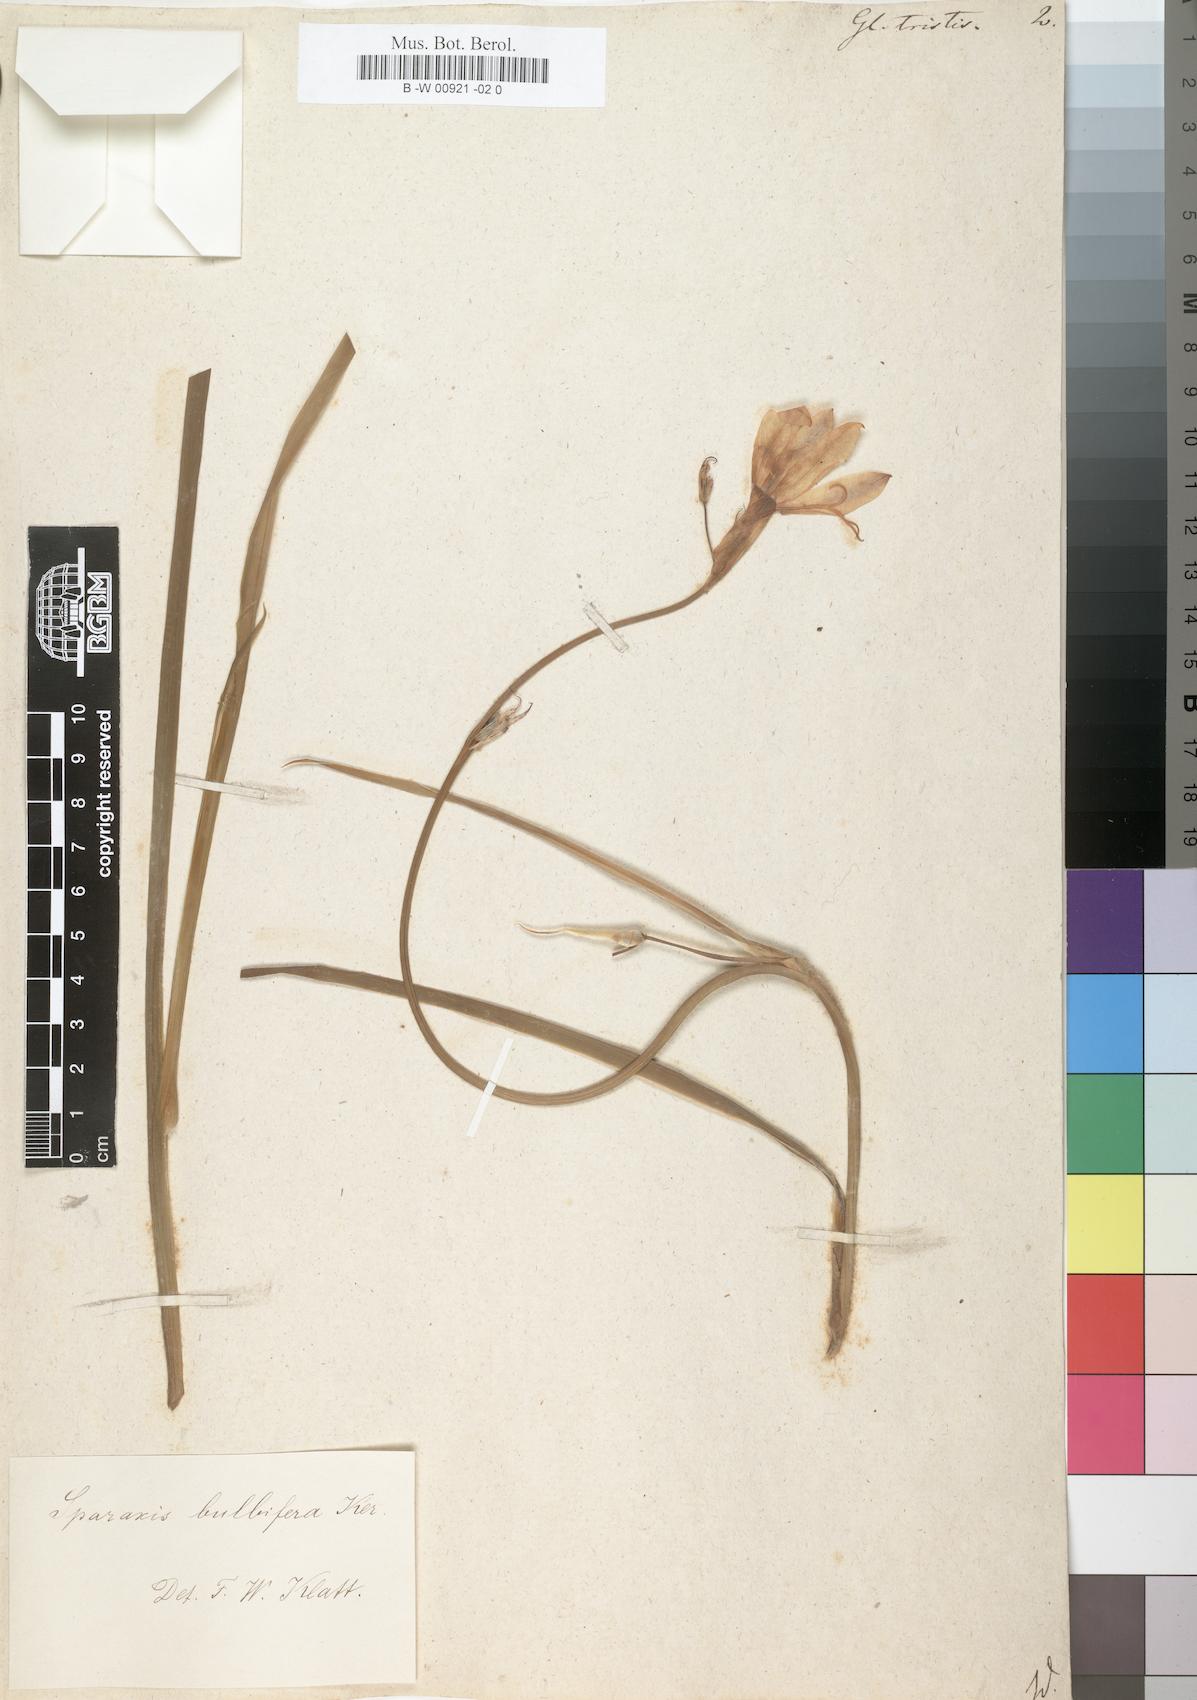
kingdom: Plantae
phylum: Tracheophyta
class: Liliopsida
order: Asparagales
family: Iridaceae
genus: Gladiolus
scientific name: Gladiolus tristis
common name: Ever-flowering gladiolus
